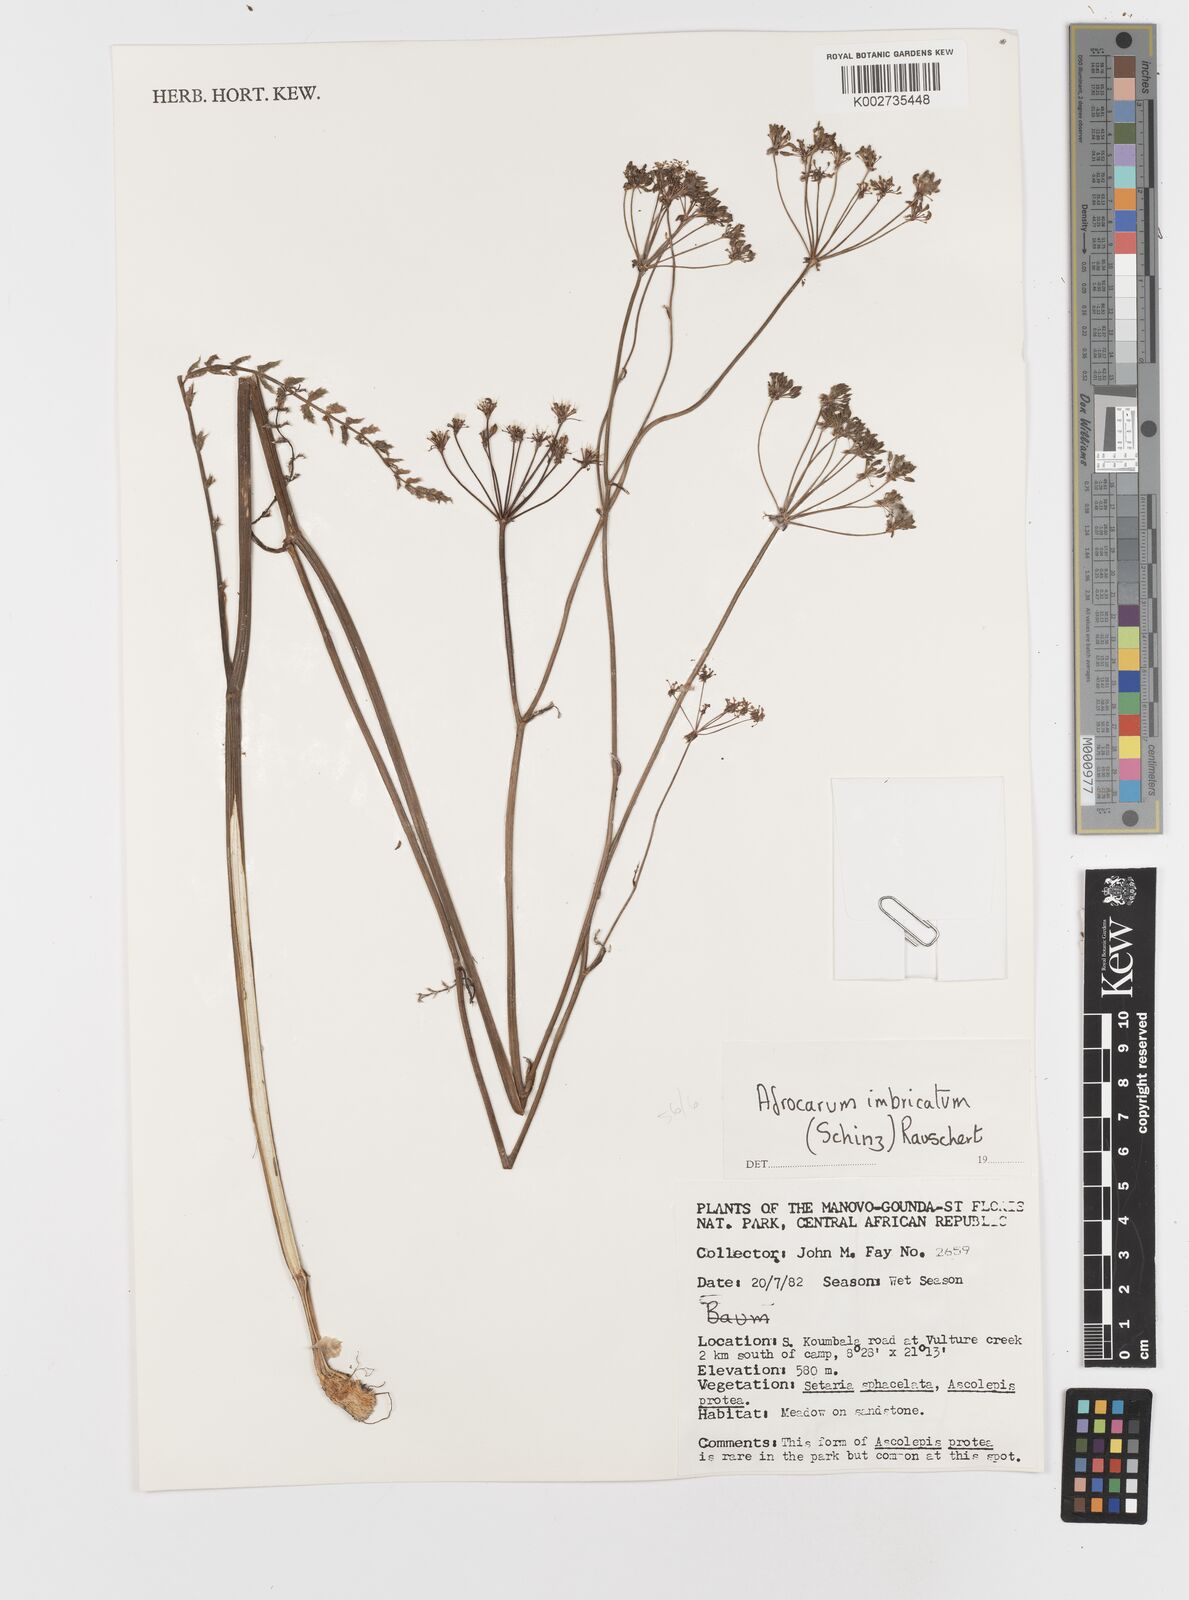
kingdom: Plantae
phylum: Tracheophyta
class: Magnoliopsida
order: Apiales
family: Apiaceae
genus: Berula
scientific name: Berula imbricata
